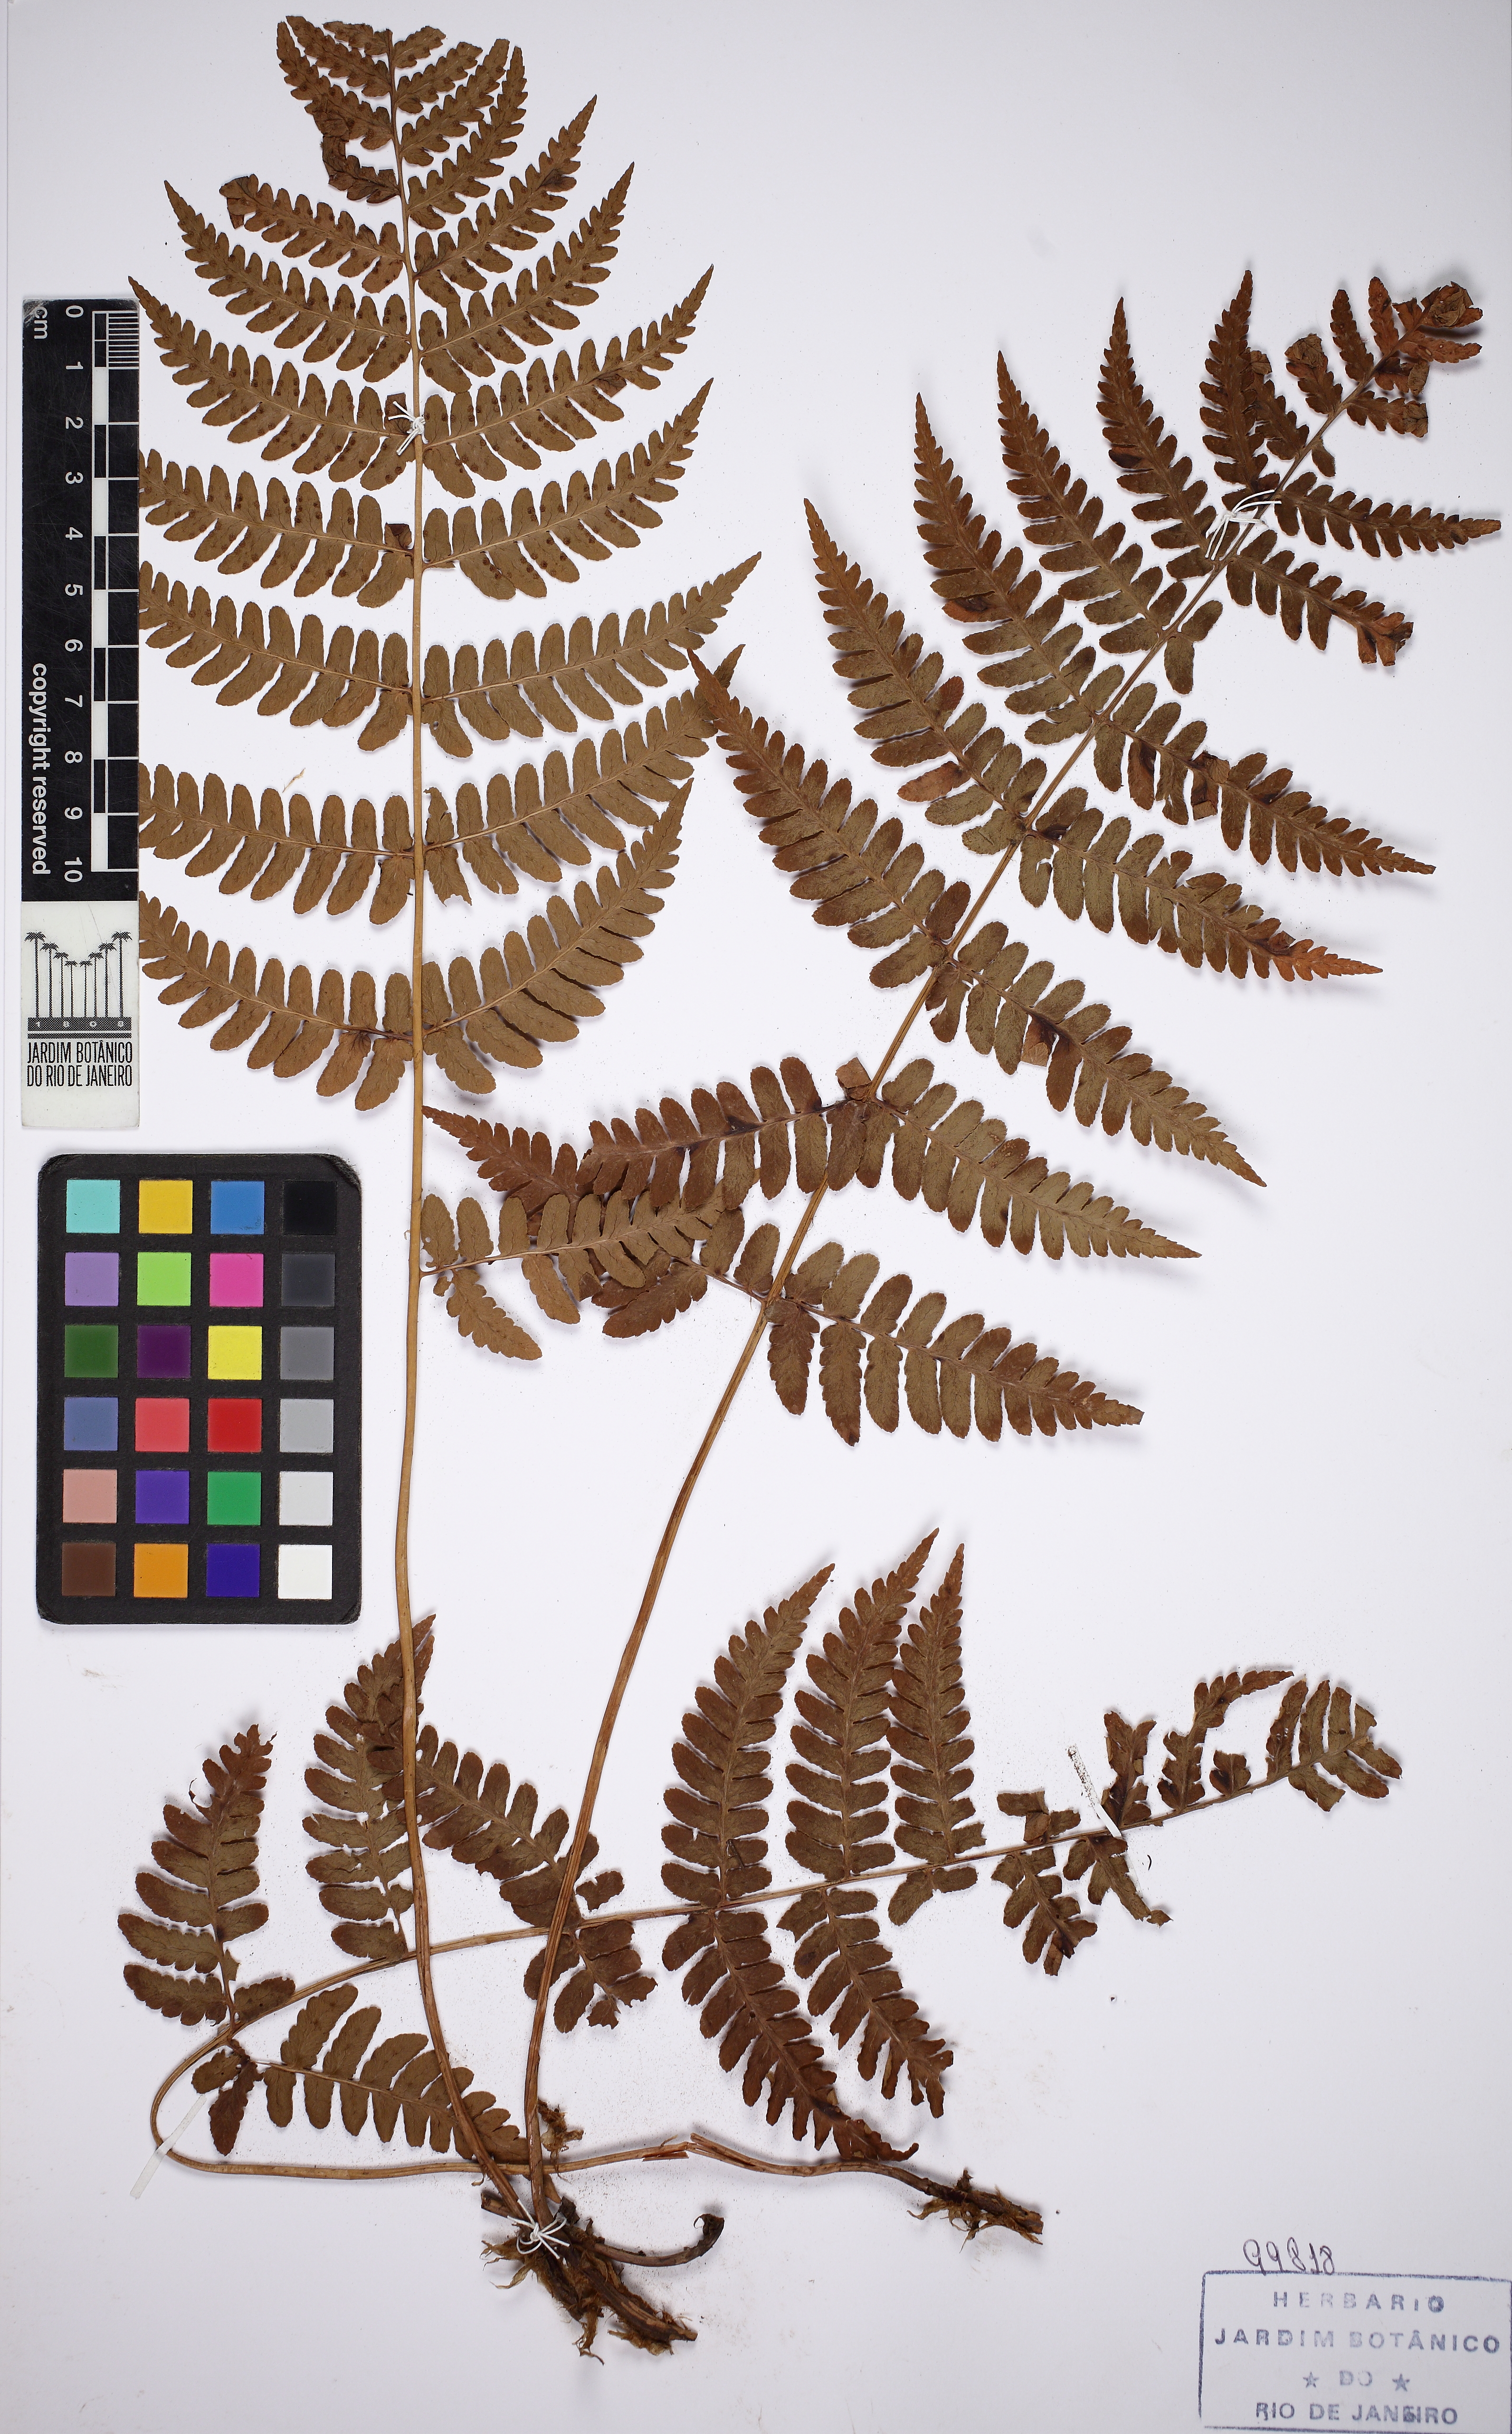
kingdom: Plantae
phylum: Tracheophyta
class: Polypodiopsida
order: Polypodiales
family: Dryopteridaceae
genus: Dryopteris
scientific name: Dryopteris marginalis
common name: Marginal wood fern
